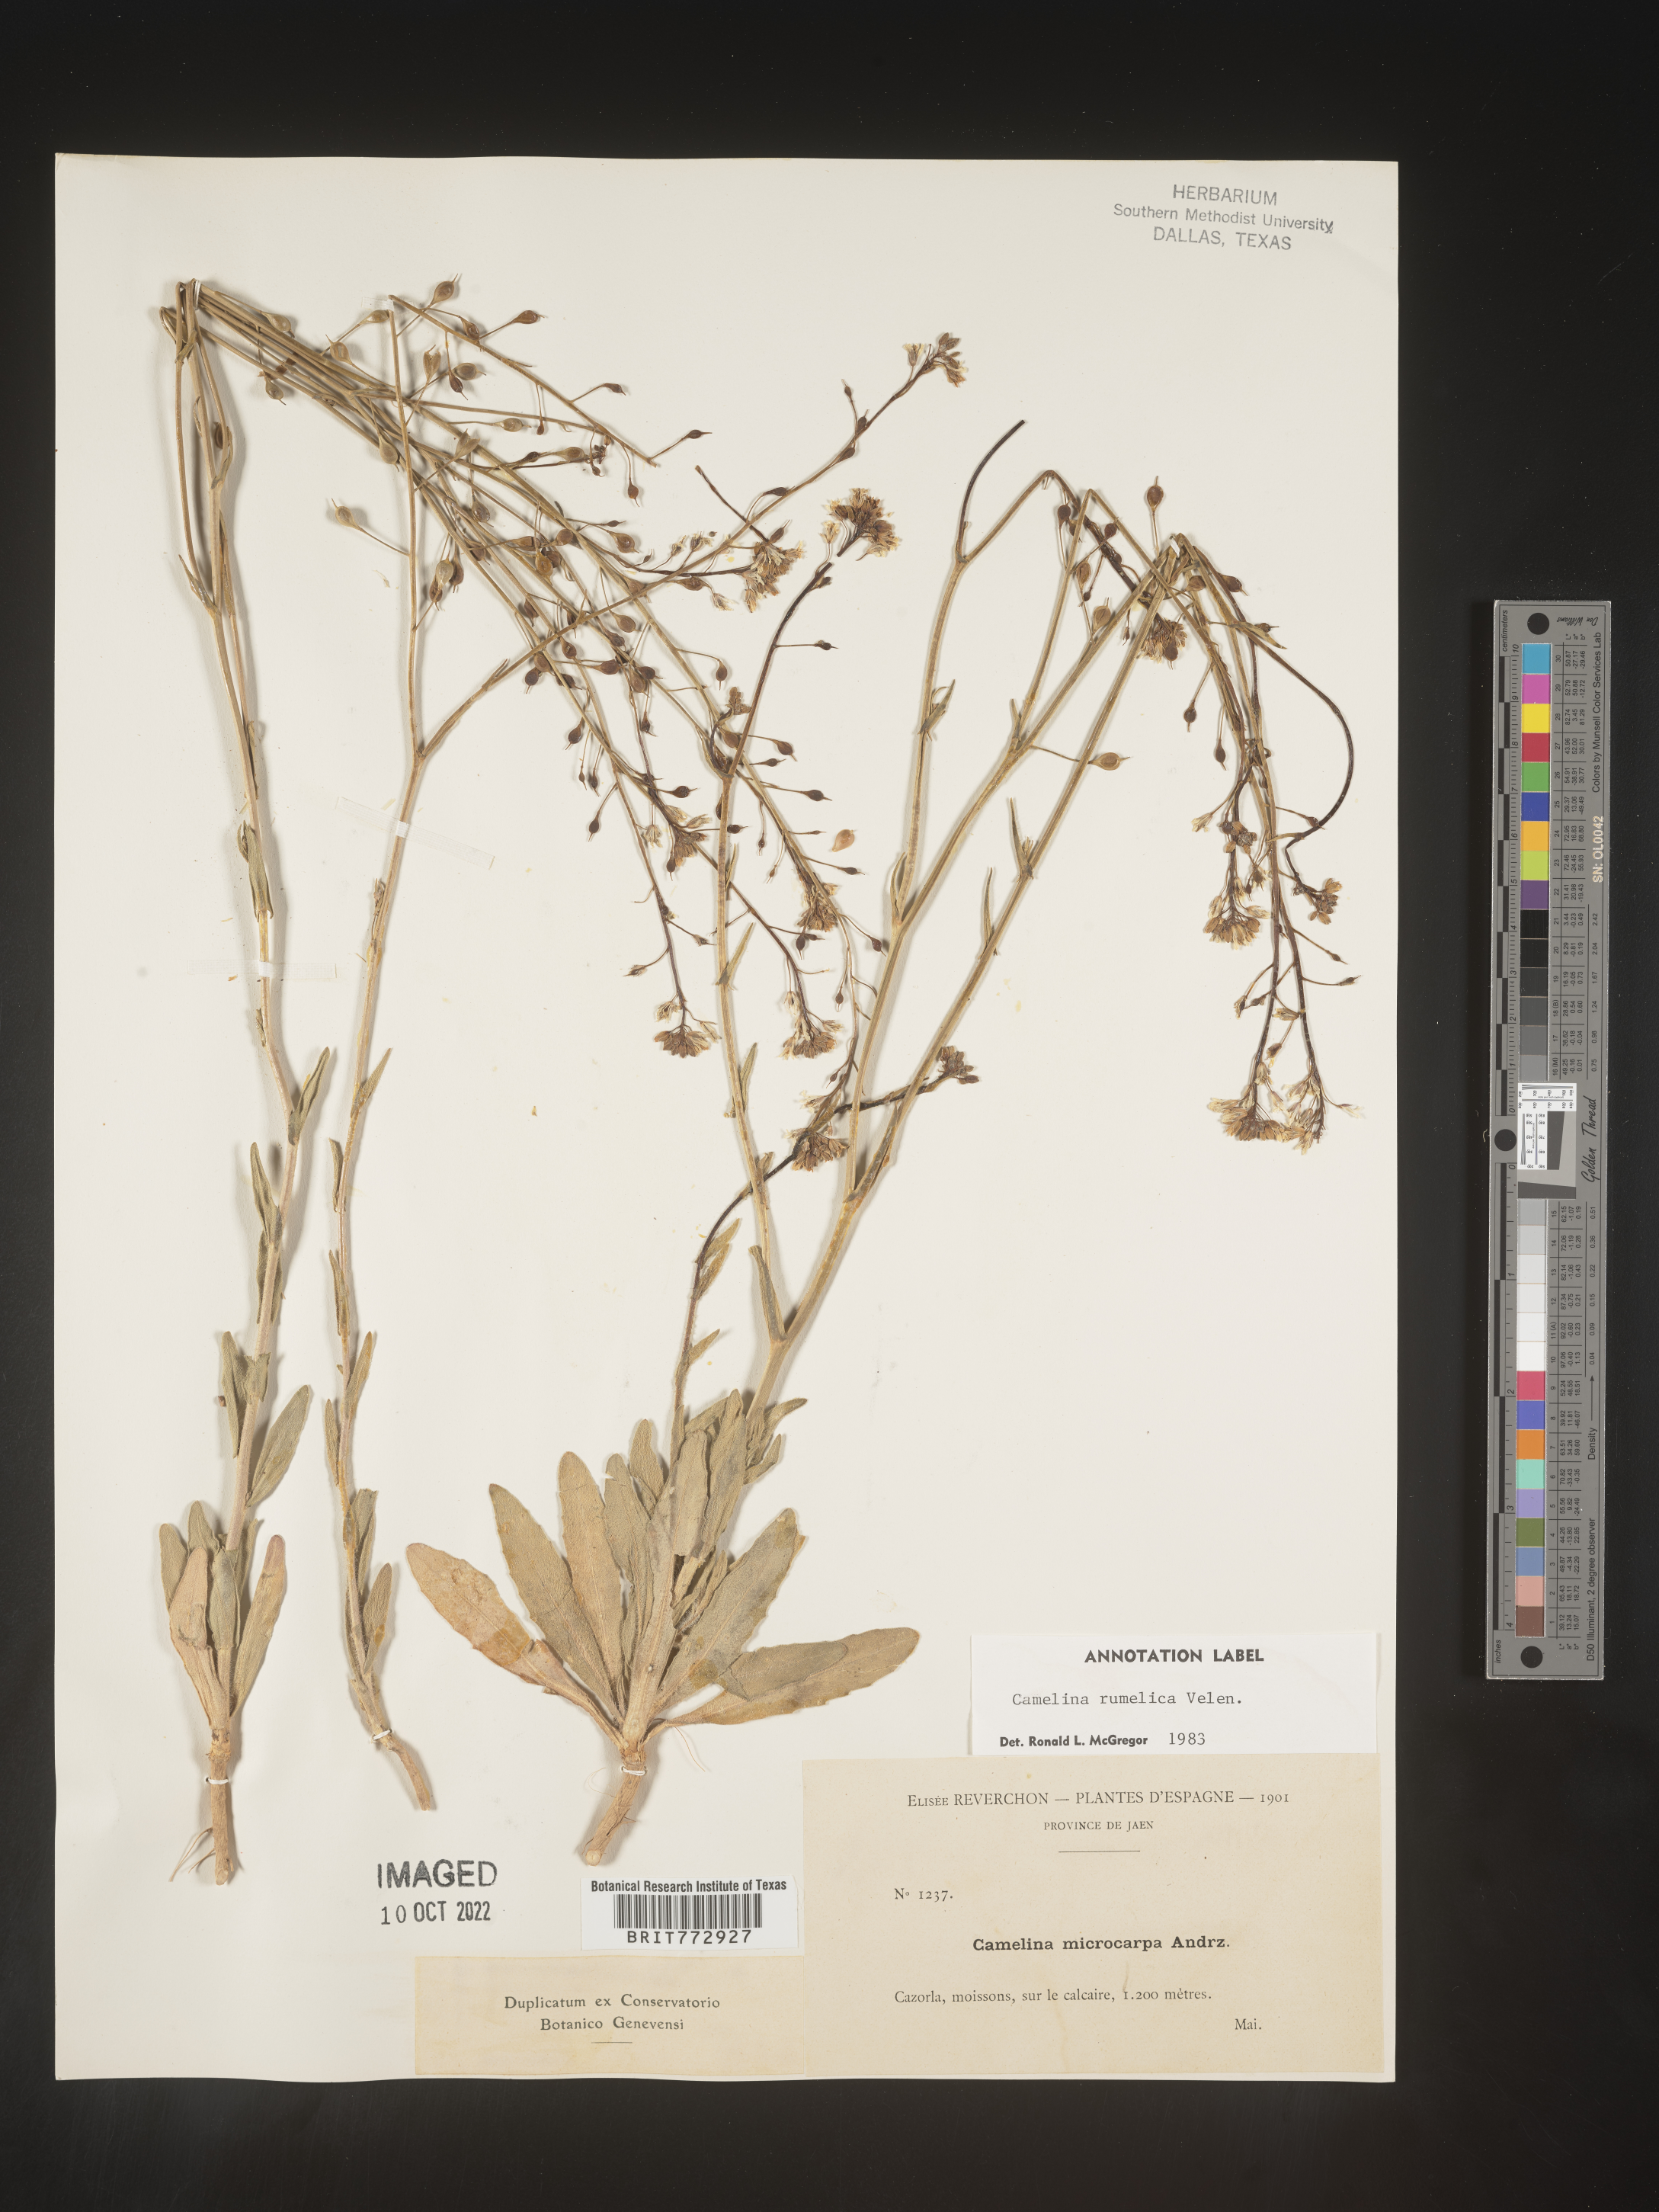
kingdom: Plantae
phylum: Tracheophyta
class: Magnoliopsida
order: Brassicales
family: Brassicaceae
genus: Camelina
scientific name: Camelina
